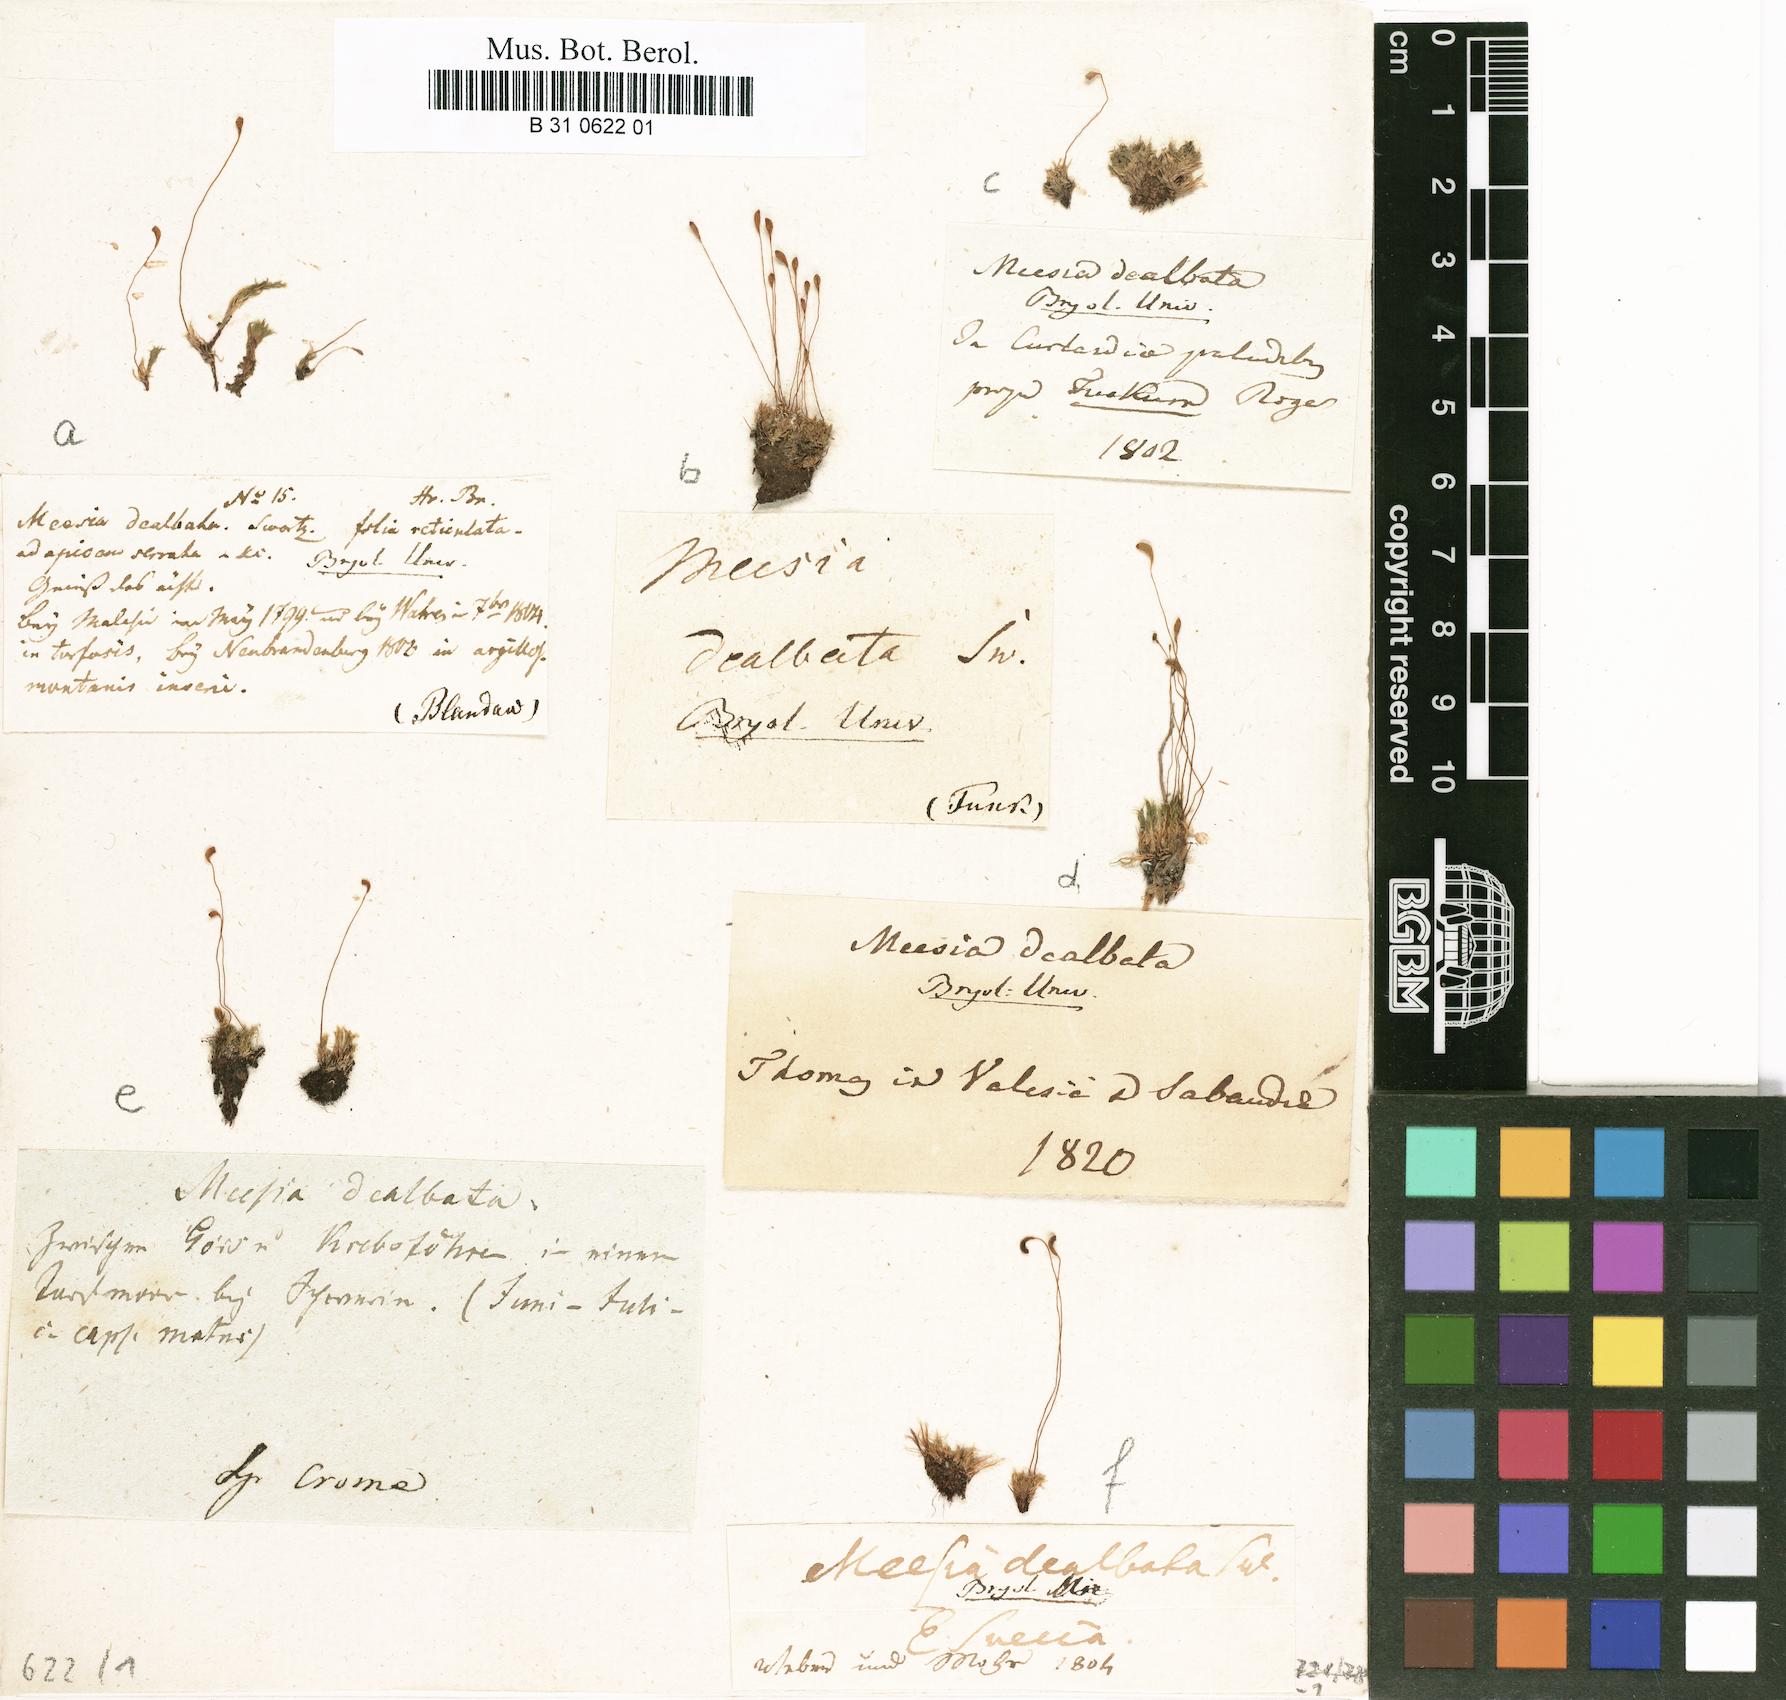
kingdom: Plantae
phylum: Bryophyta
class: Bryopsida
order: Splachnales
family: Meesiaceae
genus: Amblyodon
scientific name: Amblyodon dealbatus
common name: Short-toothed hump moss
